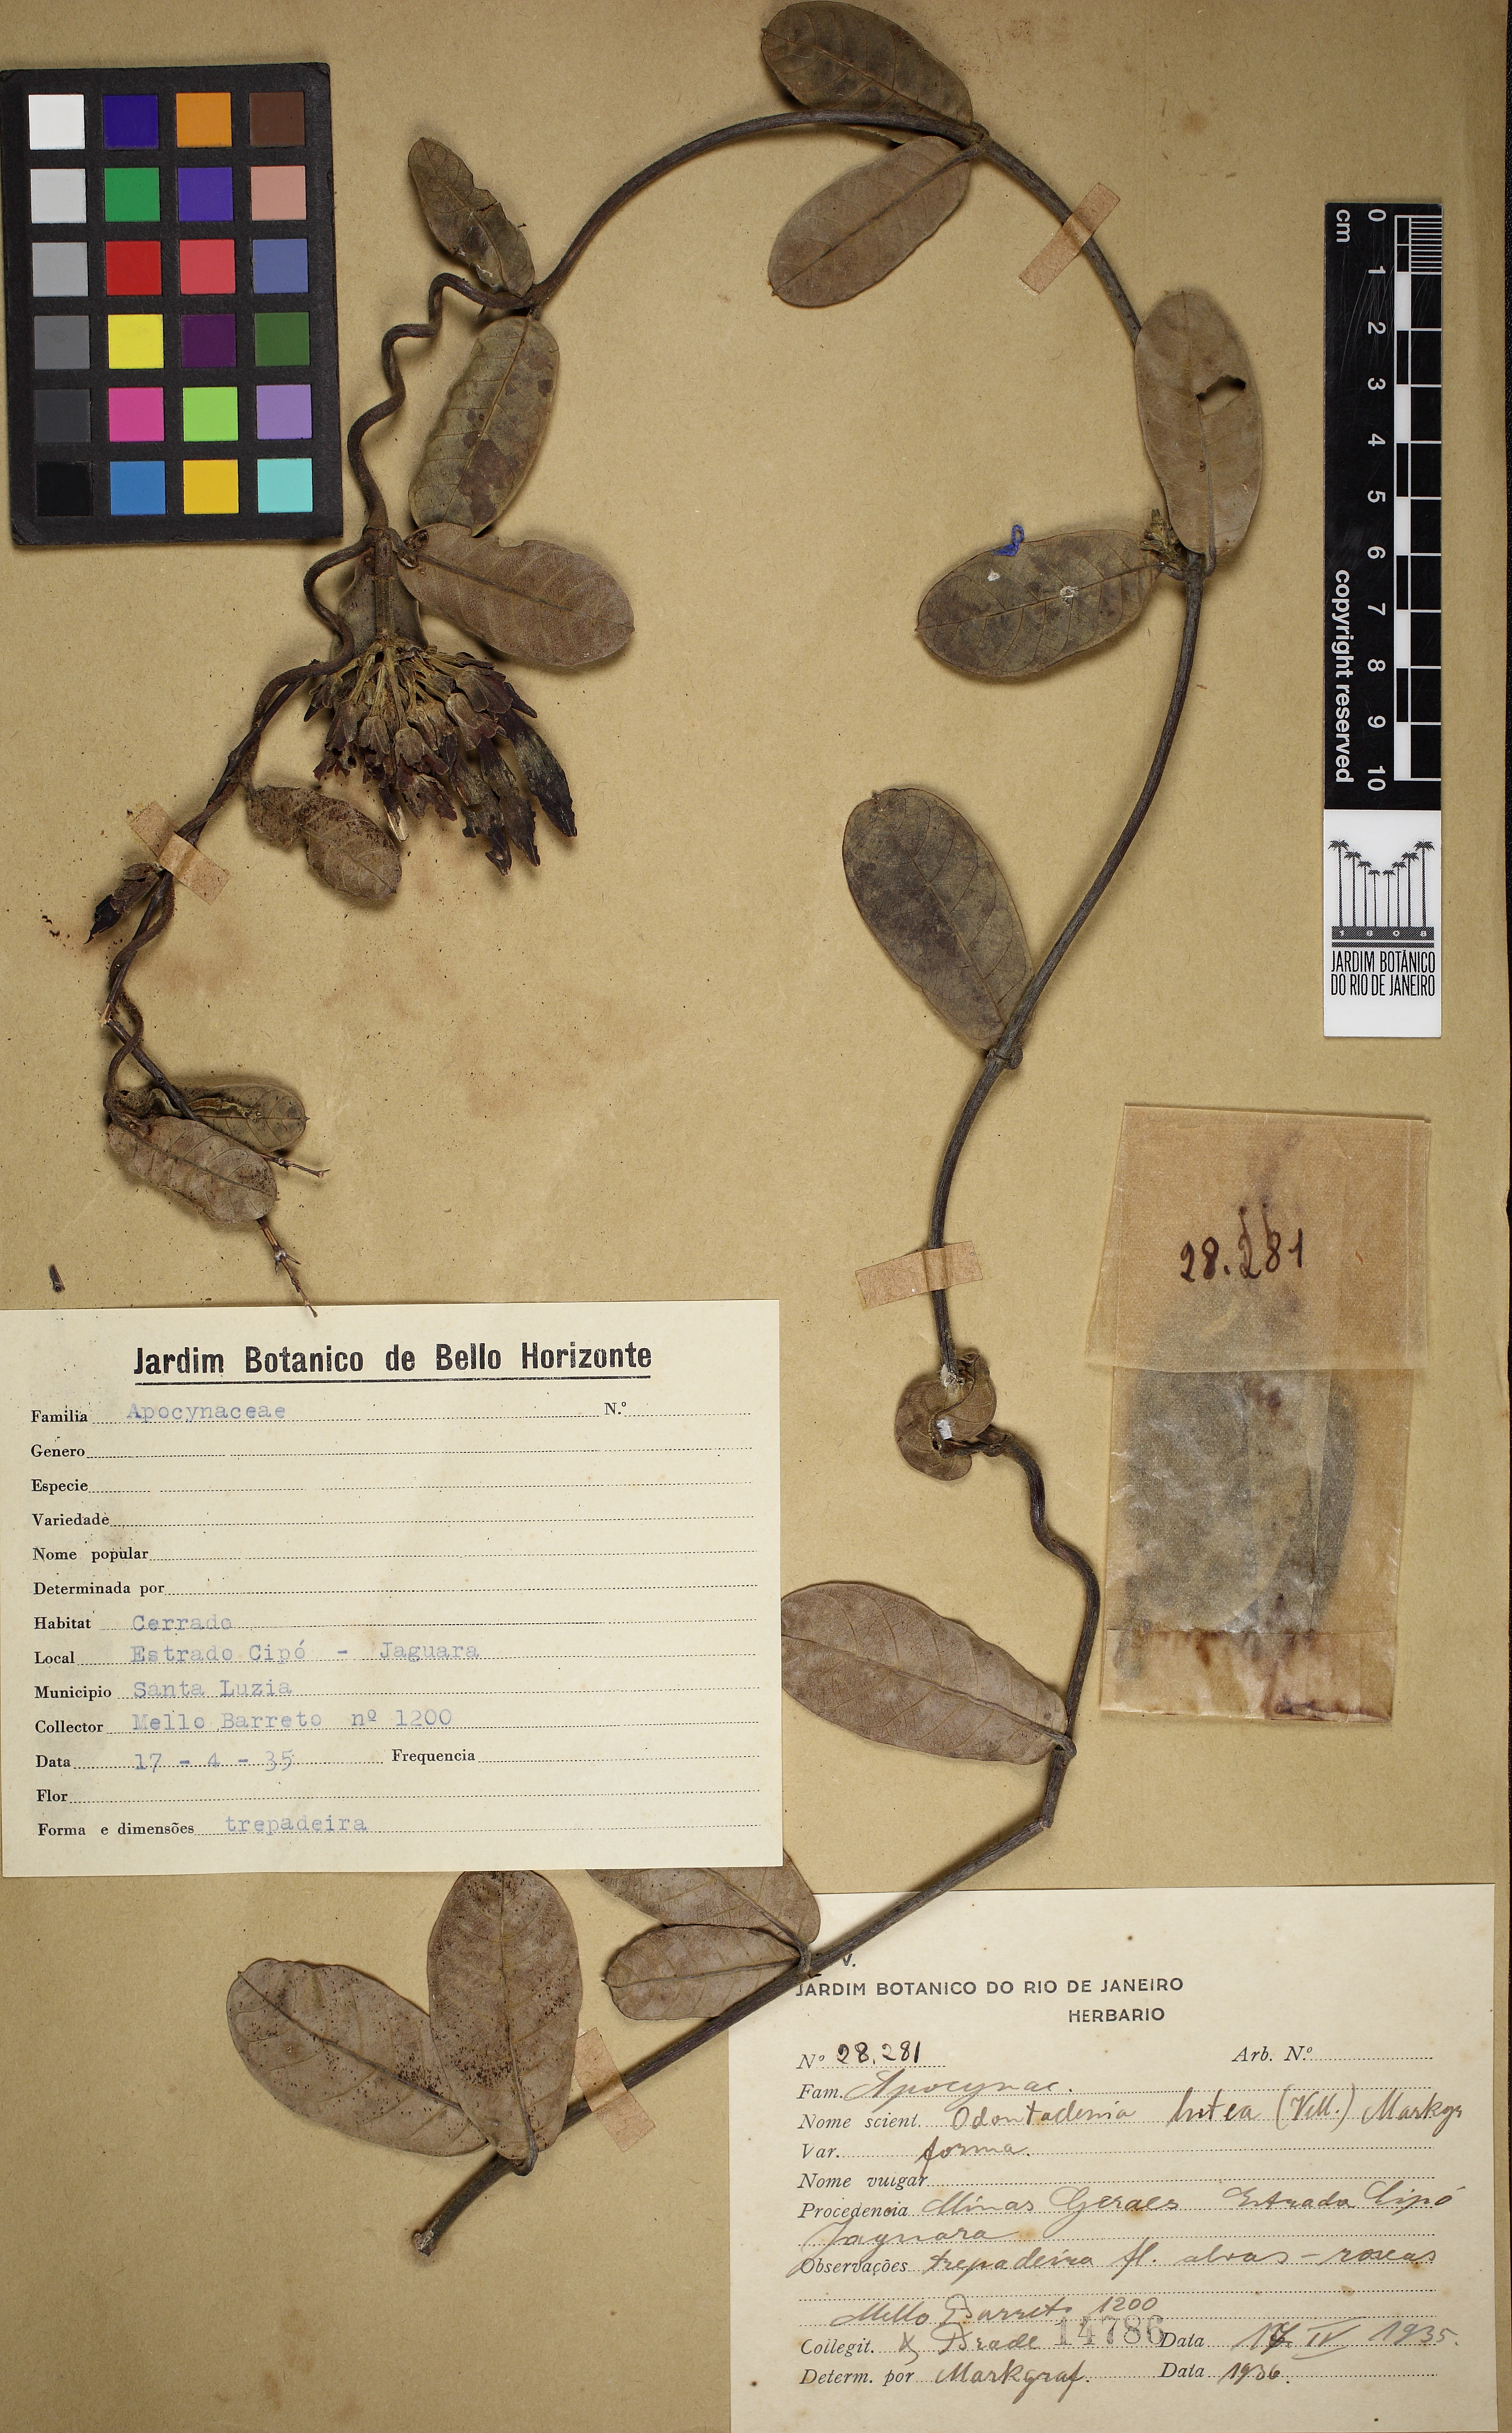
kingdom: Plantae
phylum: Tracheophyta
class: Magnoliopsida
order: Gentianales
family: Apocynaceae
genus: Odontadenia
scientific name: Odontadenia lutea
